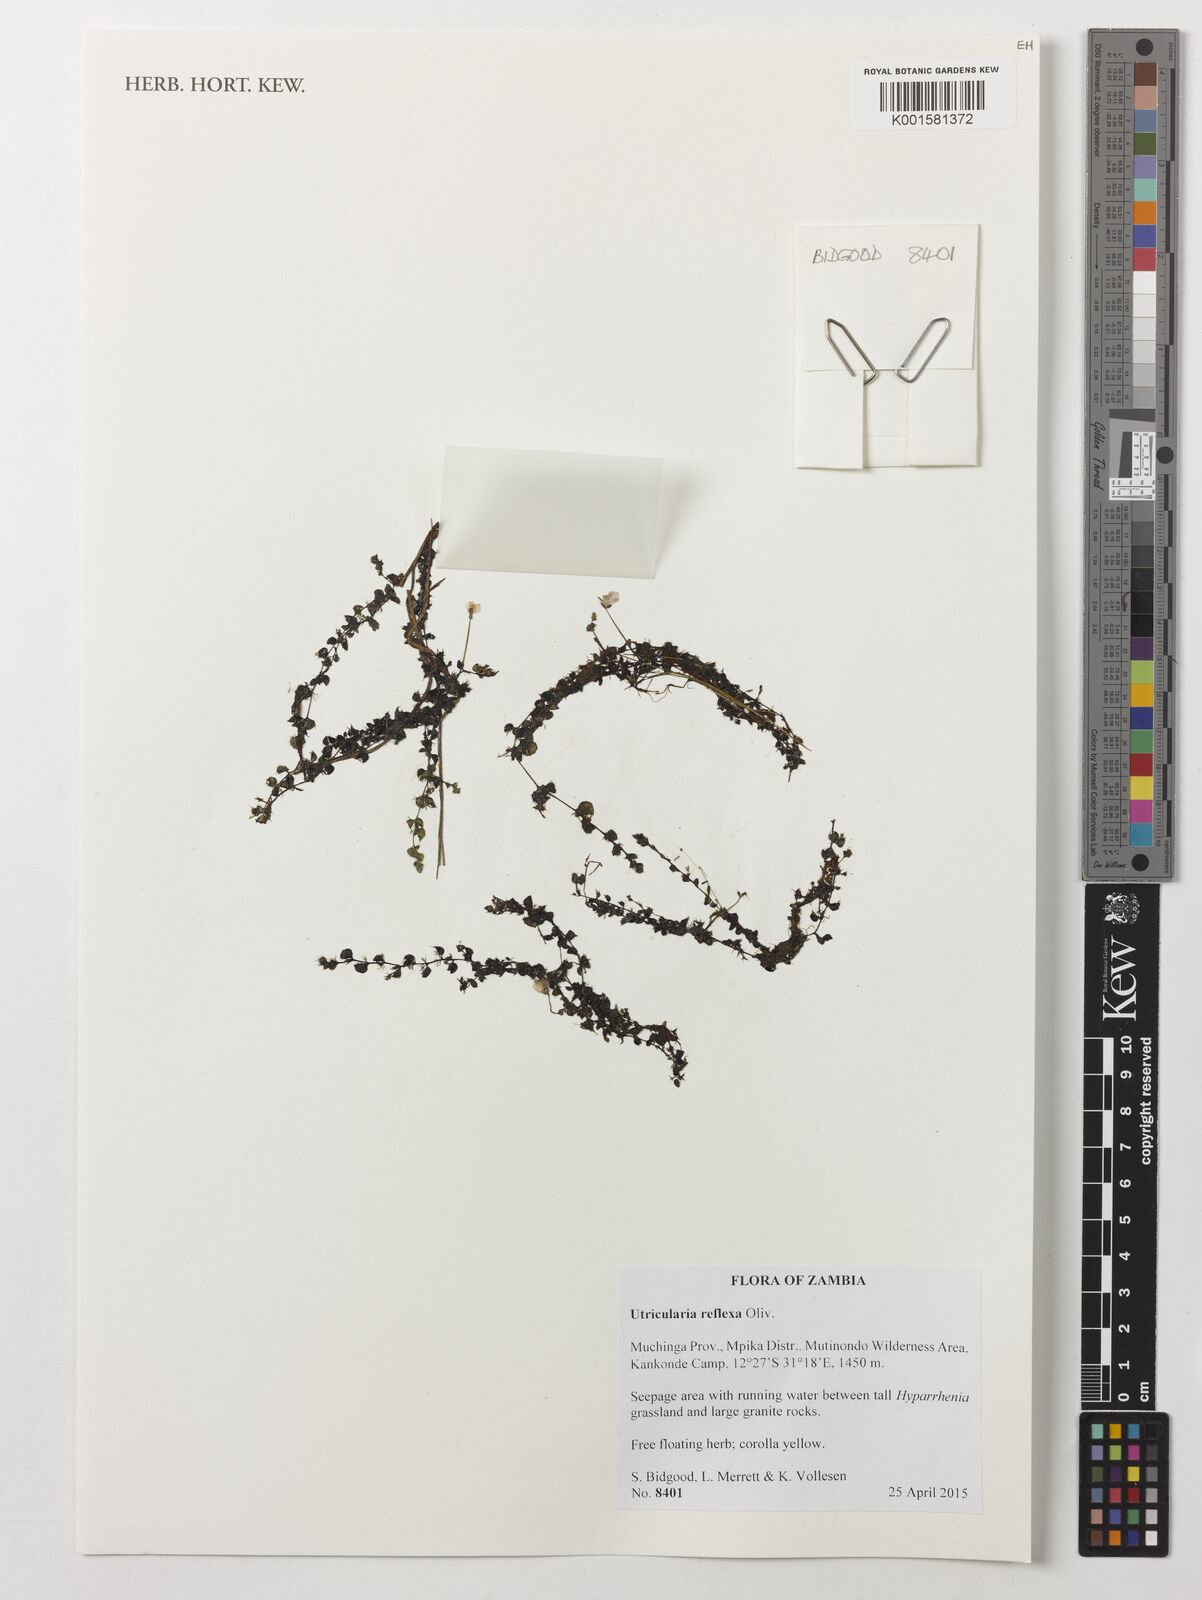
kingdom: Plantae
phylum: Tracheophyta
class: Magnoliopsida
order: Lamiales
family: Lentibulariaceae
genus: Utricularia
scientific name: Utricularia reflexa
